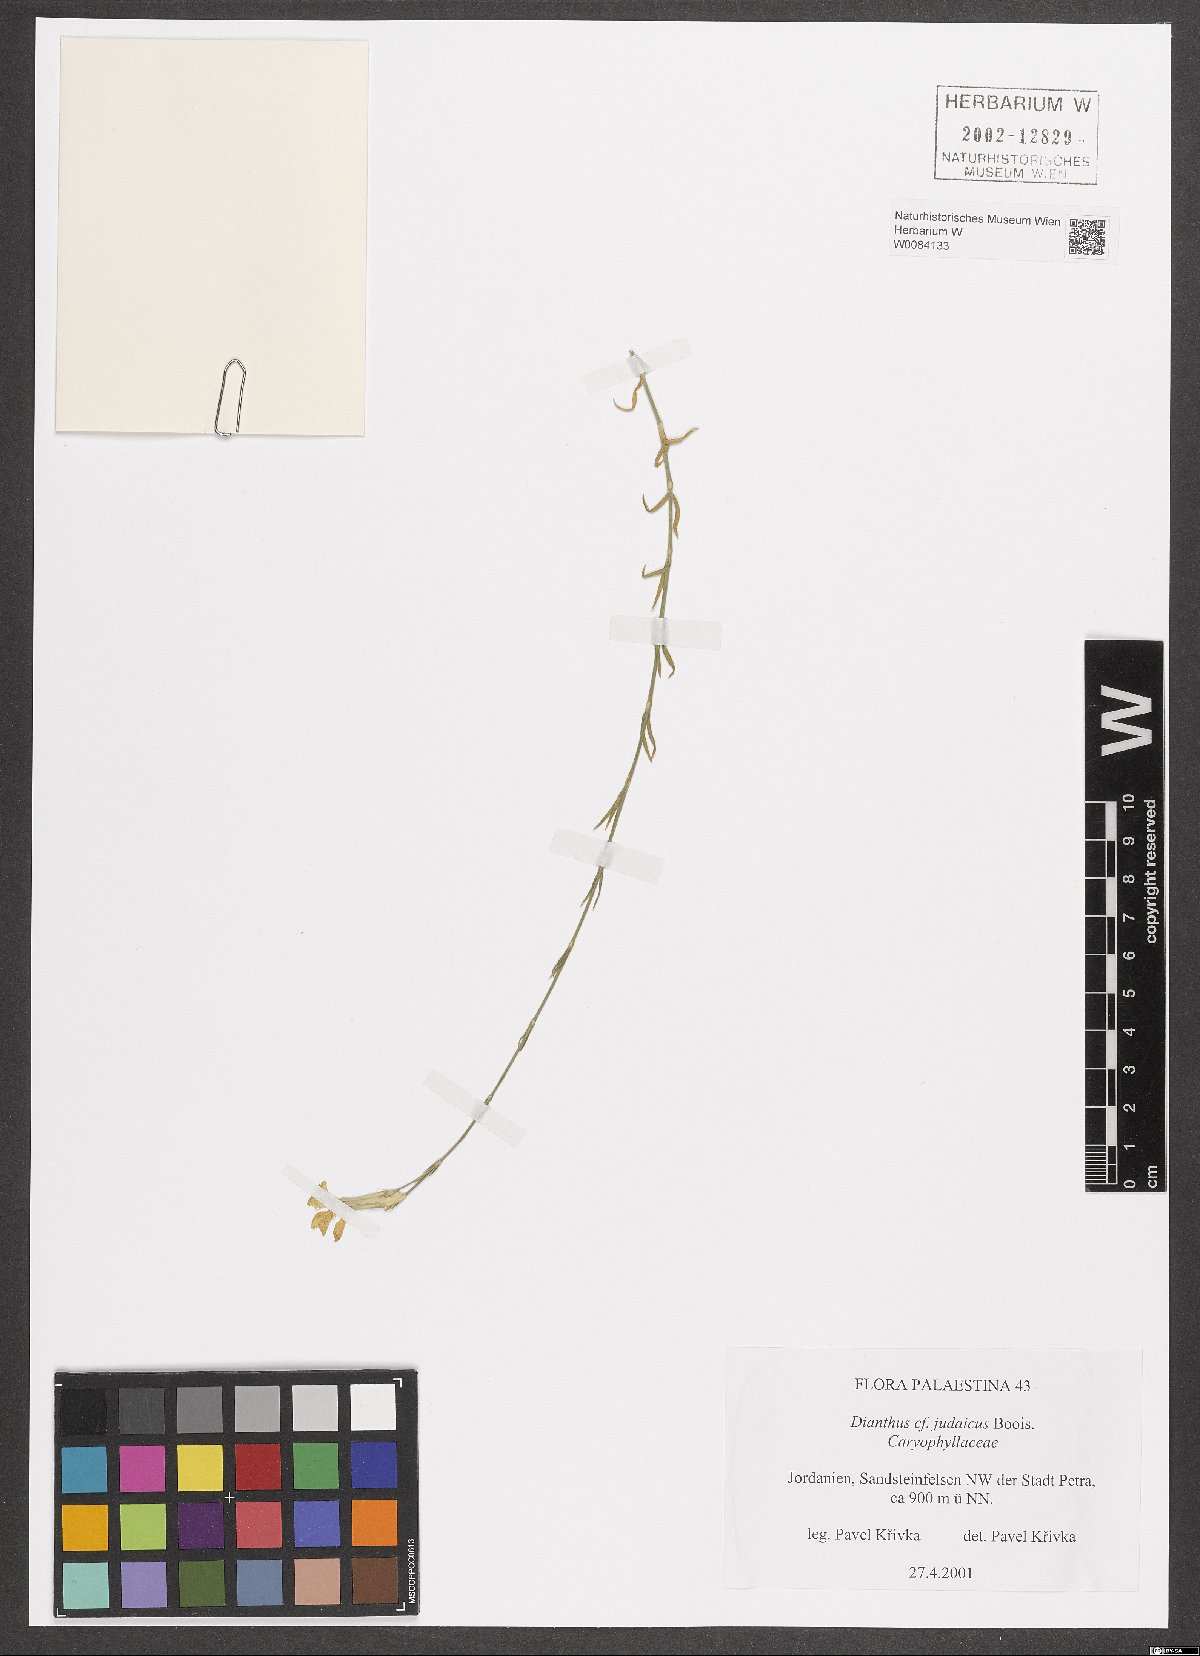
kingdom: Plantae
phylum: Tracheophyta
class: Magnoliopsida
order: Caryophyllales
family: Caryophyllaceae
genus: Dianthus
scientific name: Dianthus monadelphus
